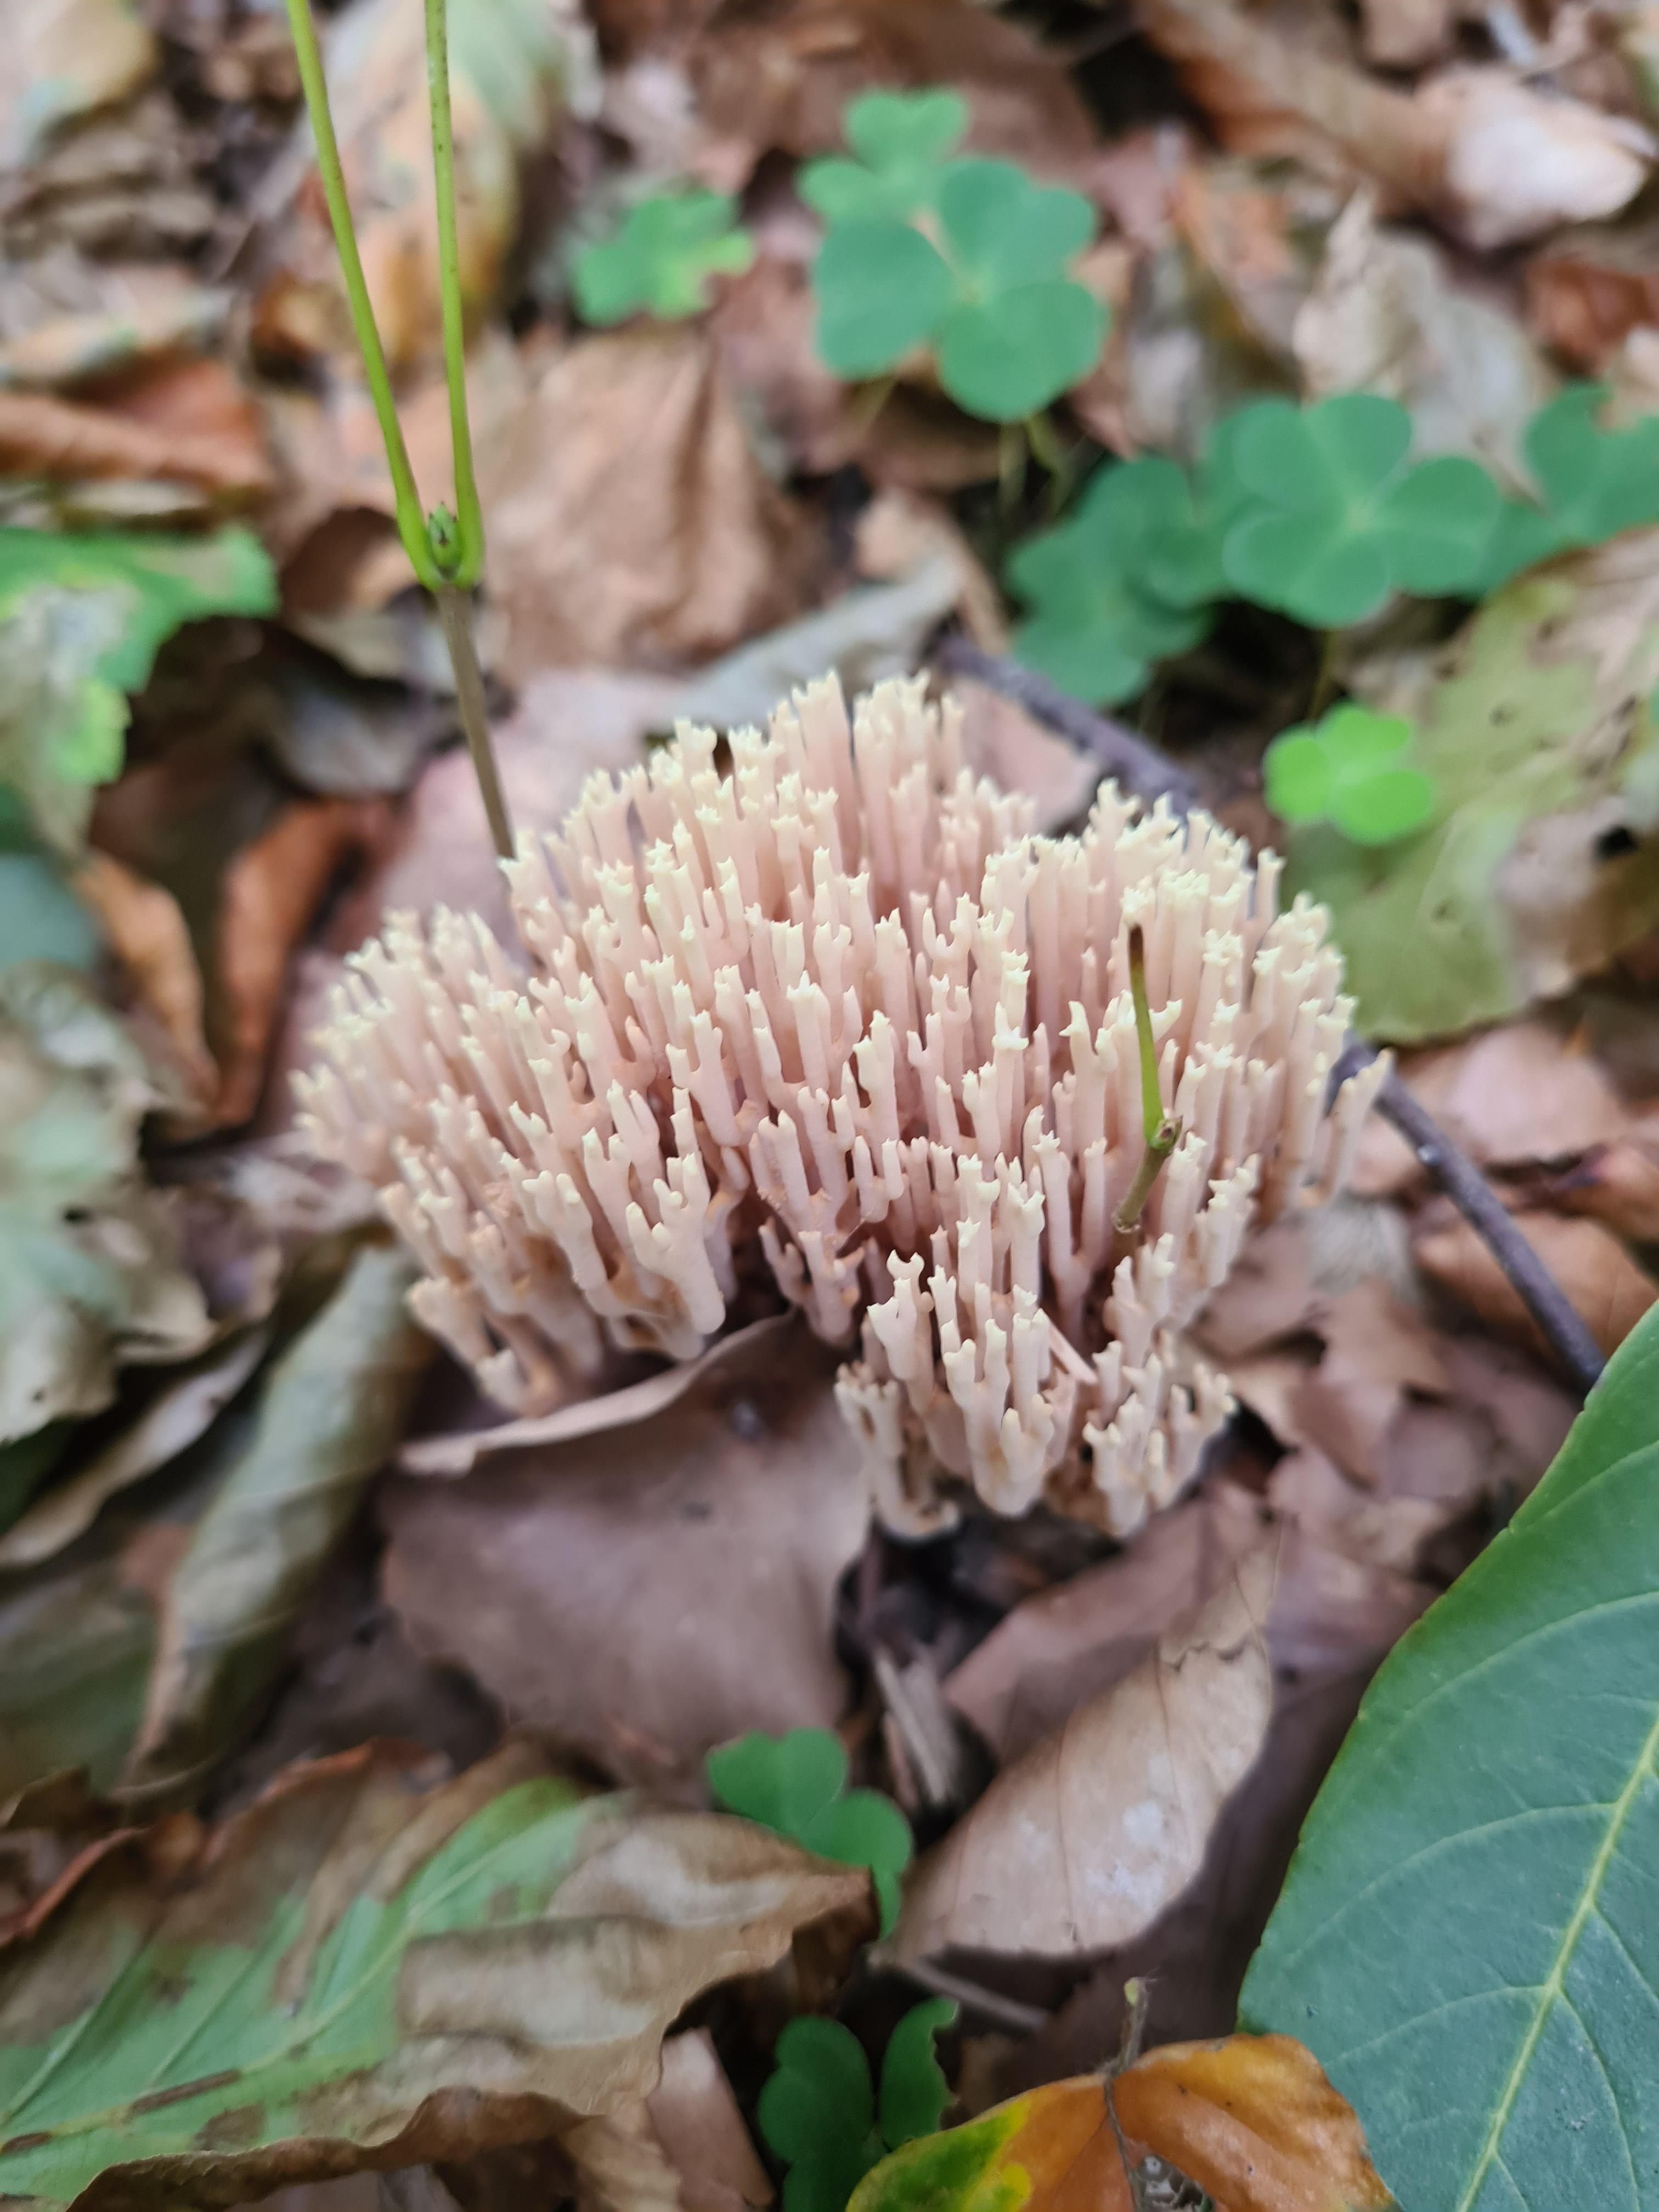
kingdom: Fungi
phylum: Basidiomycota
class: Agaricomycetes
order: Gomphales
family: Gomphaceae
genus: Ramaria
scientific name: Ramaria stricta
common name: rank koralsvamp
